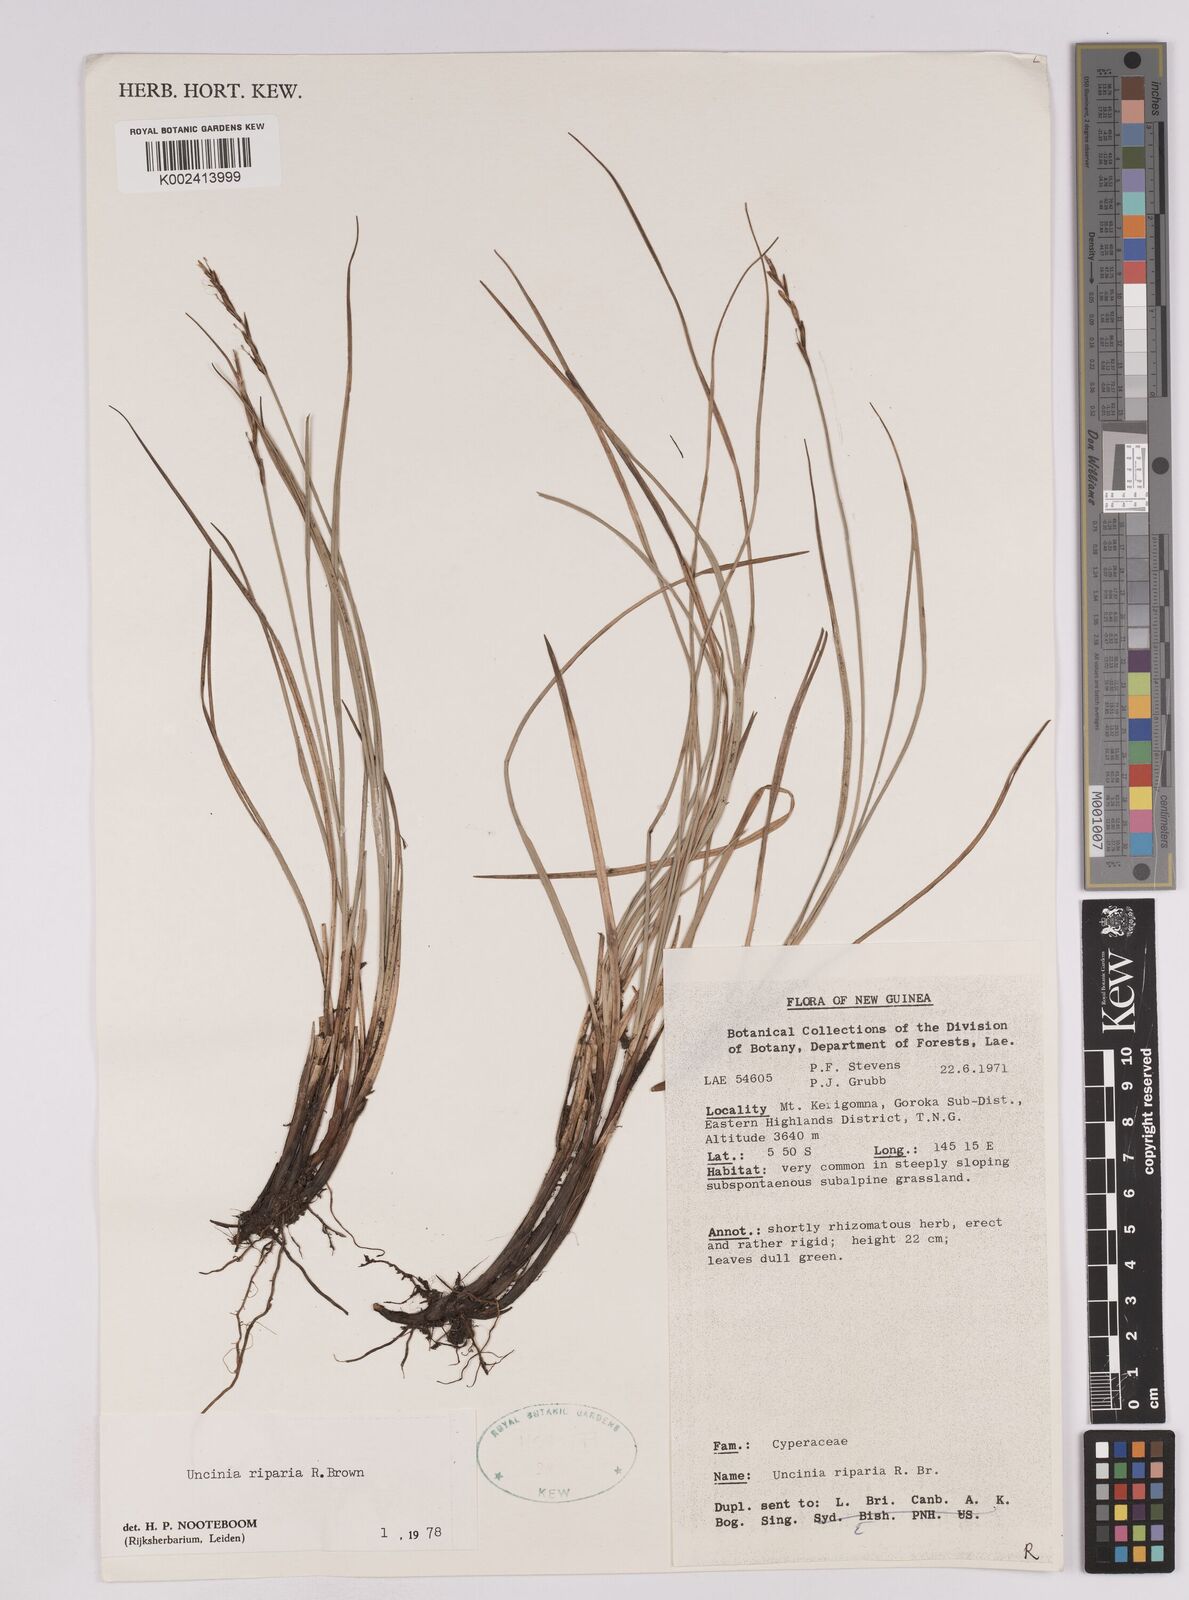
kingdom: Plantae
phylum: Tracheophyta
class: Liliopsida
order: Poales
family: Cyperaceae
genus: Carex
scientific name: Carex sclerophylla
